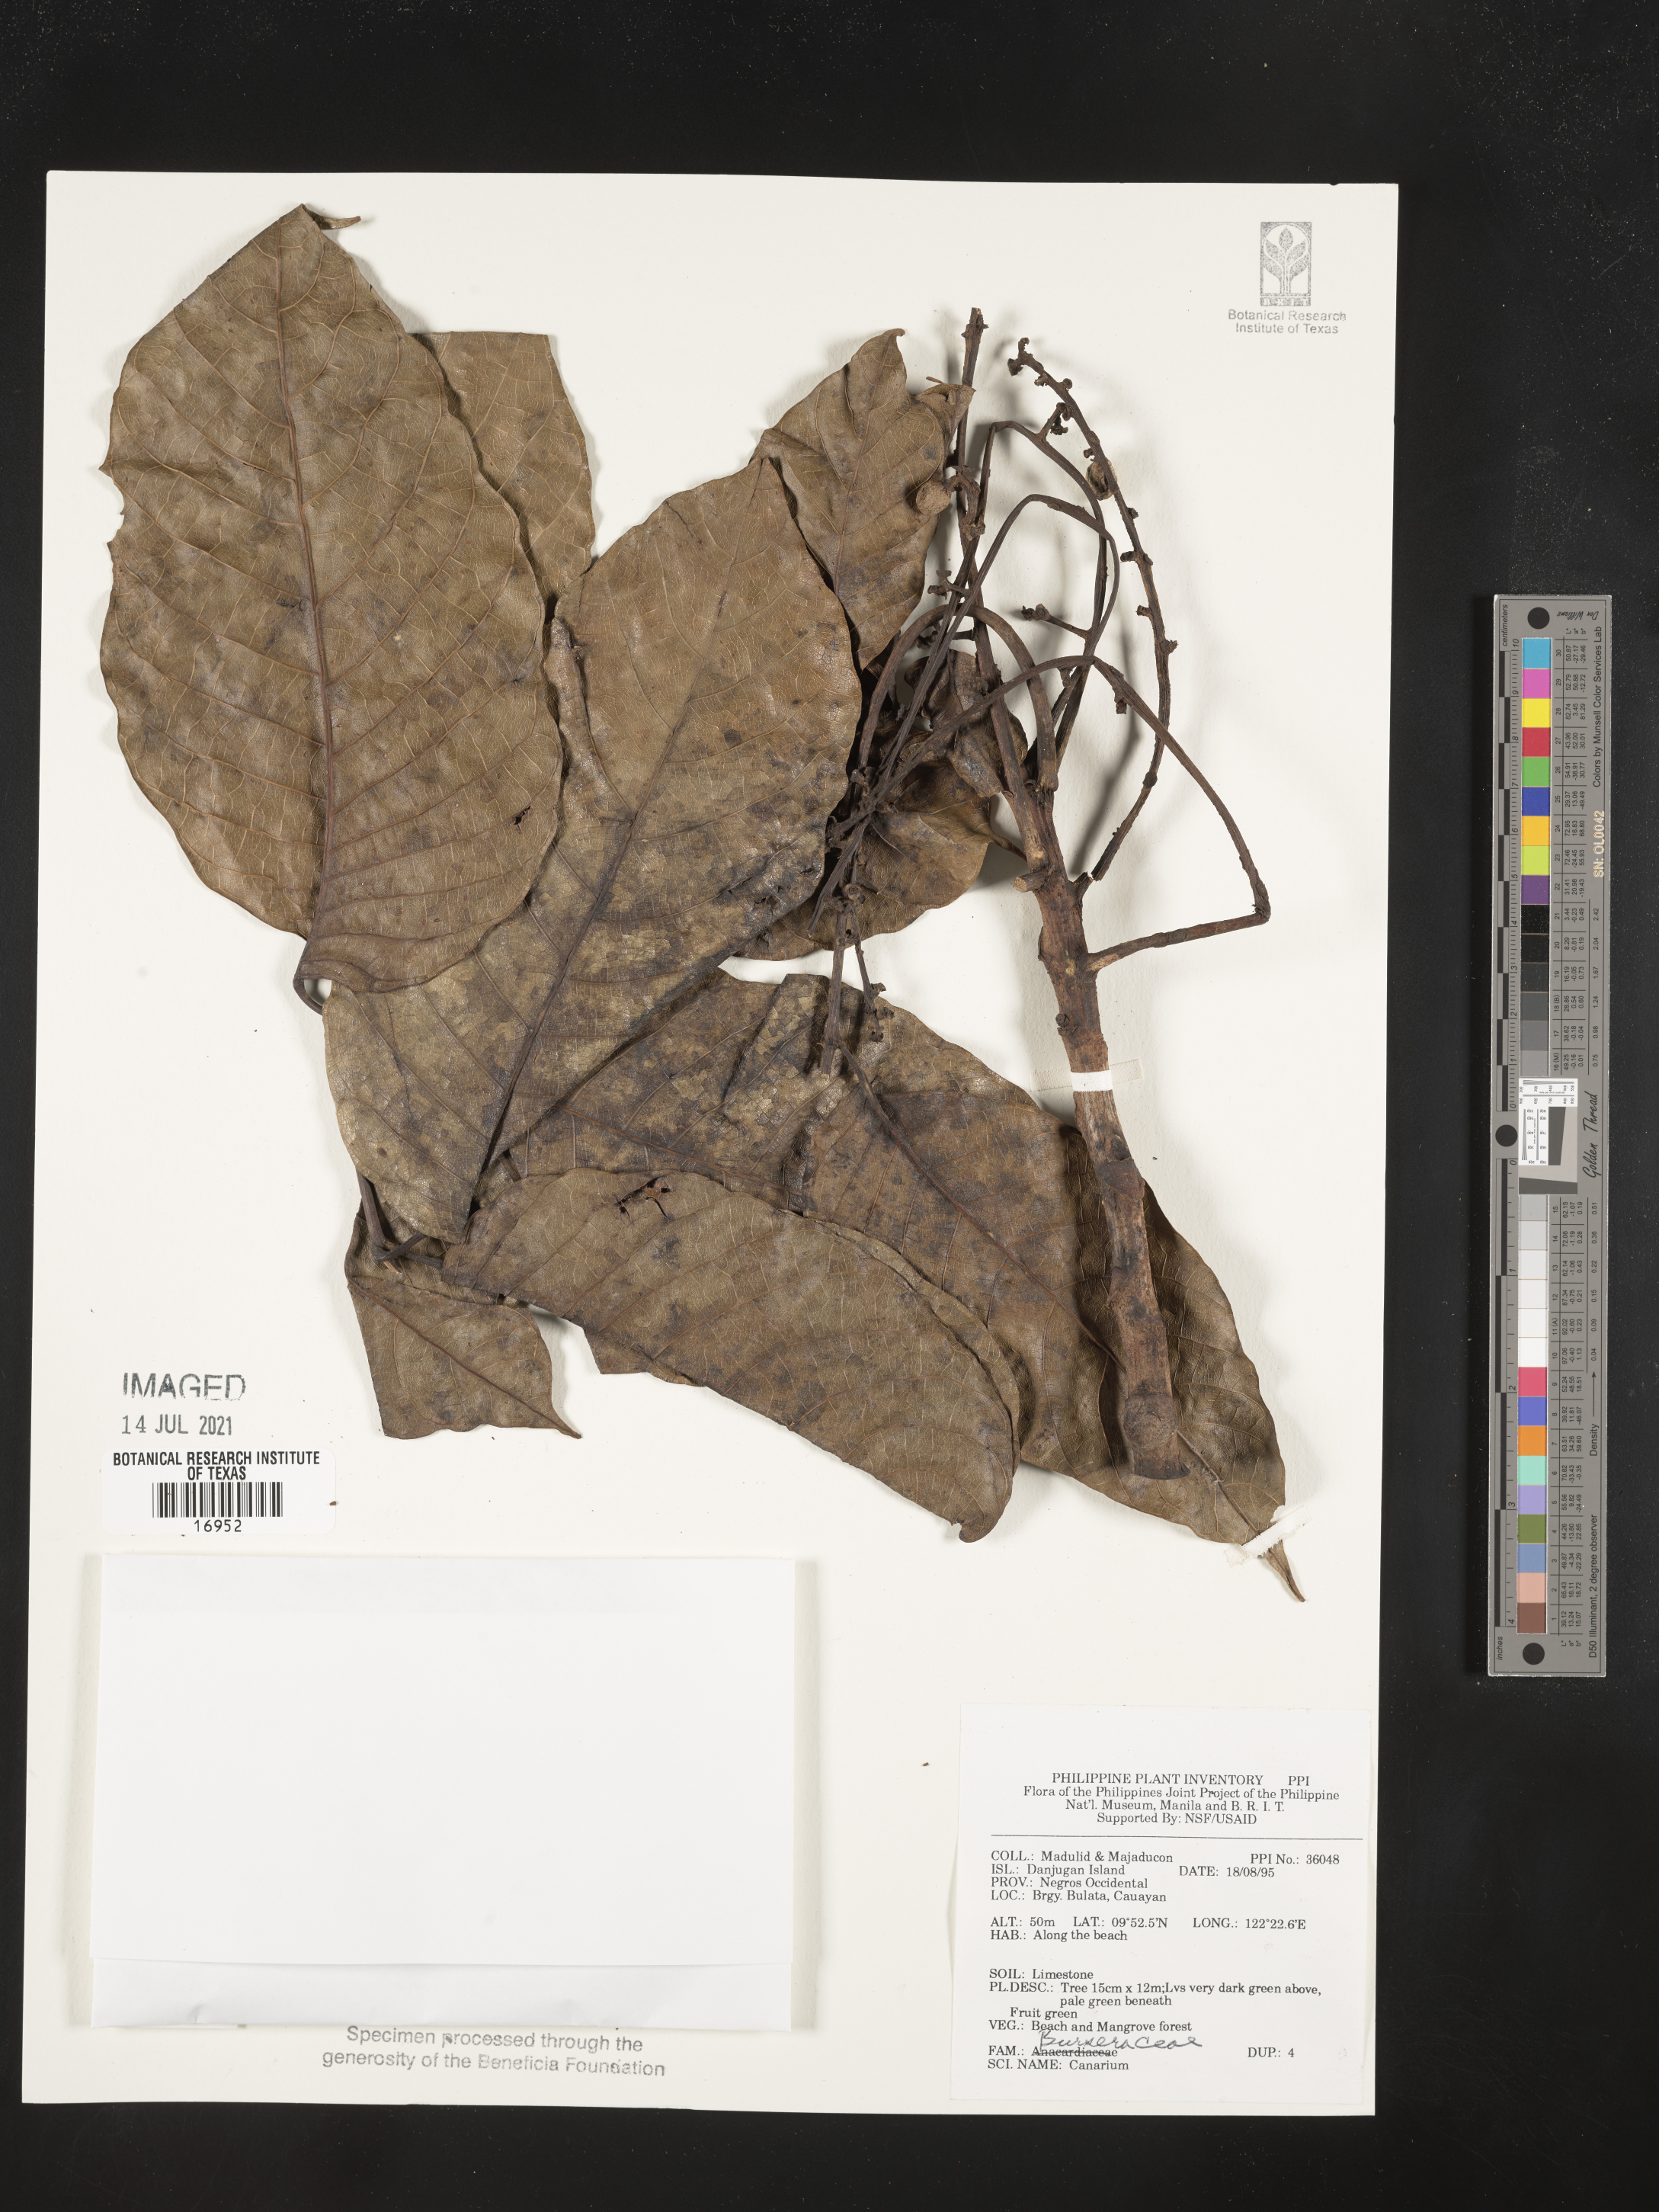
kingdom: Plantae
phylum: Tracheophyta
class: Magnoliopsida
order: Sapindales
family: Burseraceae
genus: Canarium
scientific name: Canarium
